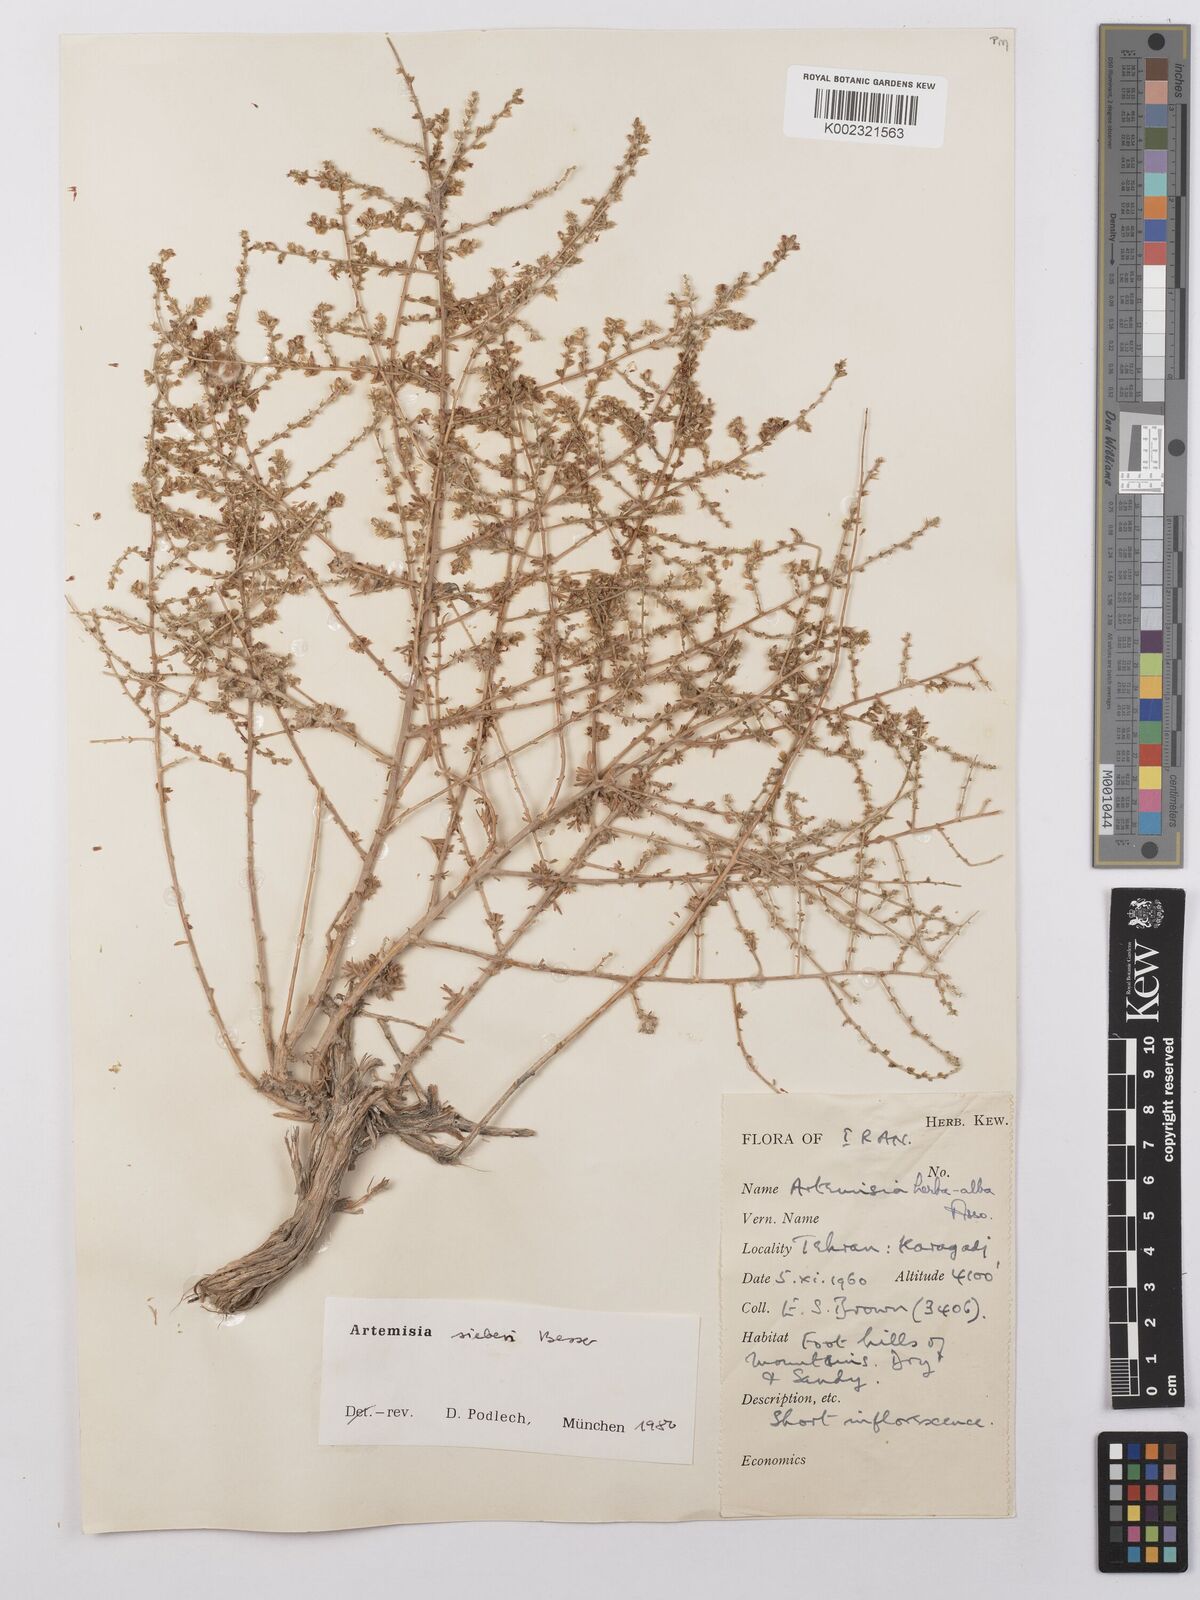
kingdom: Plantae
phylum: Tracheophyta
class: Magnoliopsida
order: Asterales
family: Asteraceae
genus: Artemisia
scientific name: Artemisia sieberi
